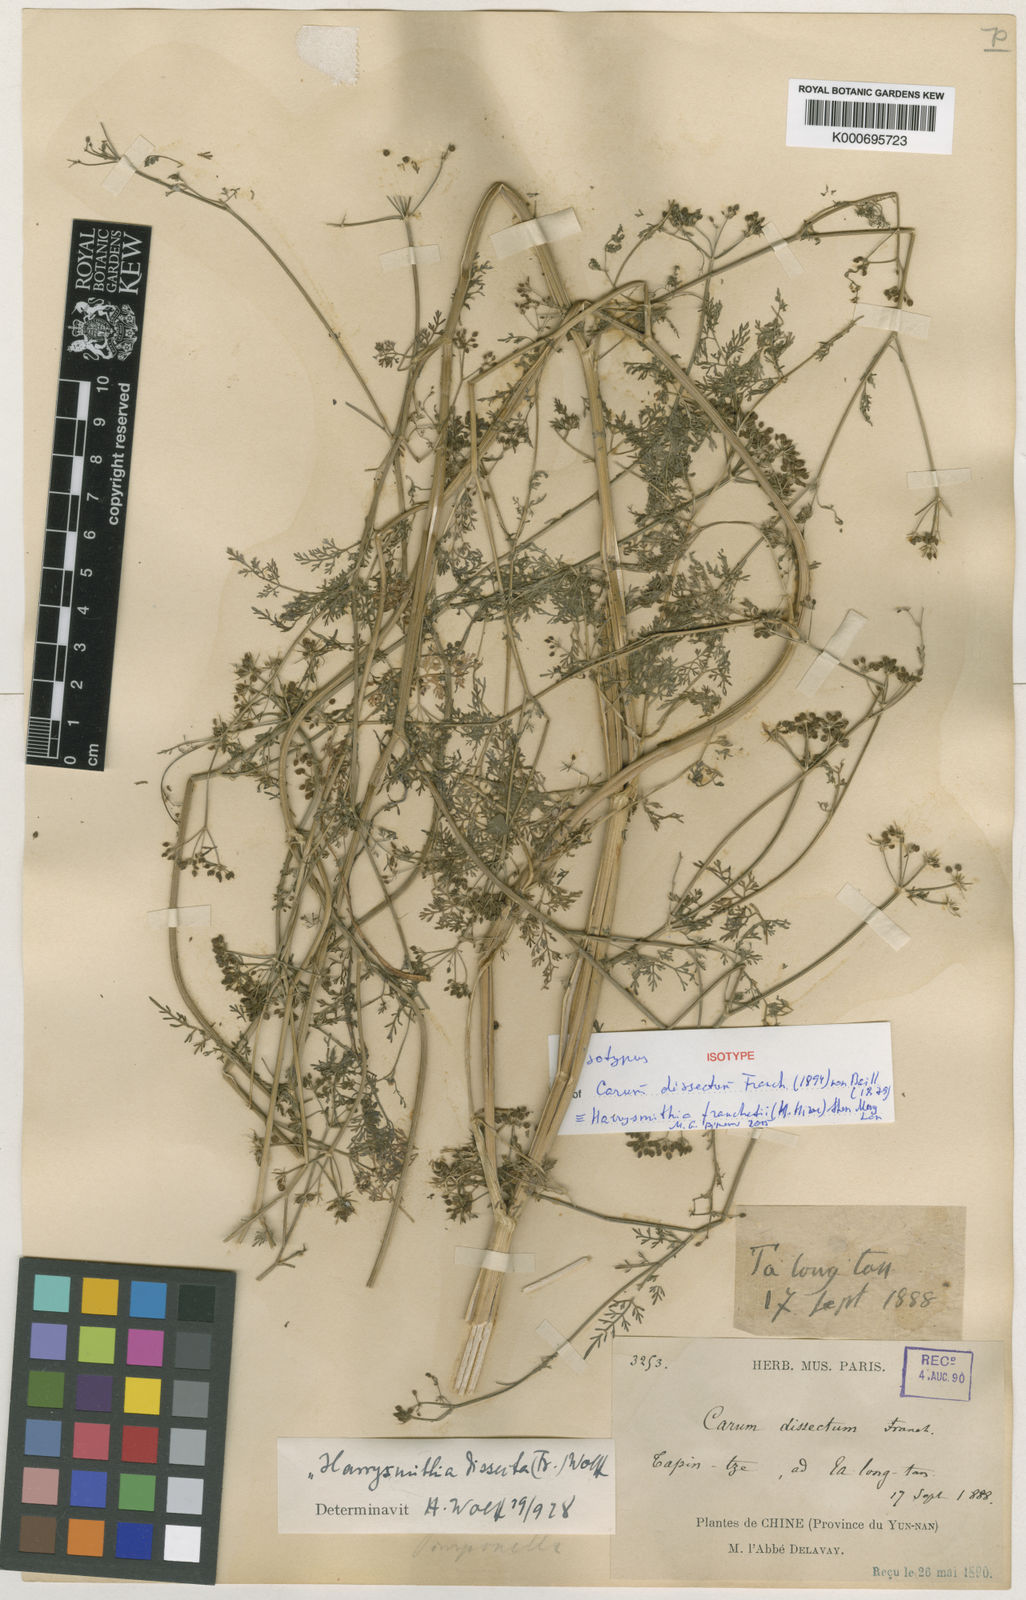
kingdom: Plantae
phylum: Tracheophyta
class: Magnoliopsida
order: Apiales
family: Apiaceae
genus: Harrysmithia
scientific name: Harrysmithia
